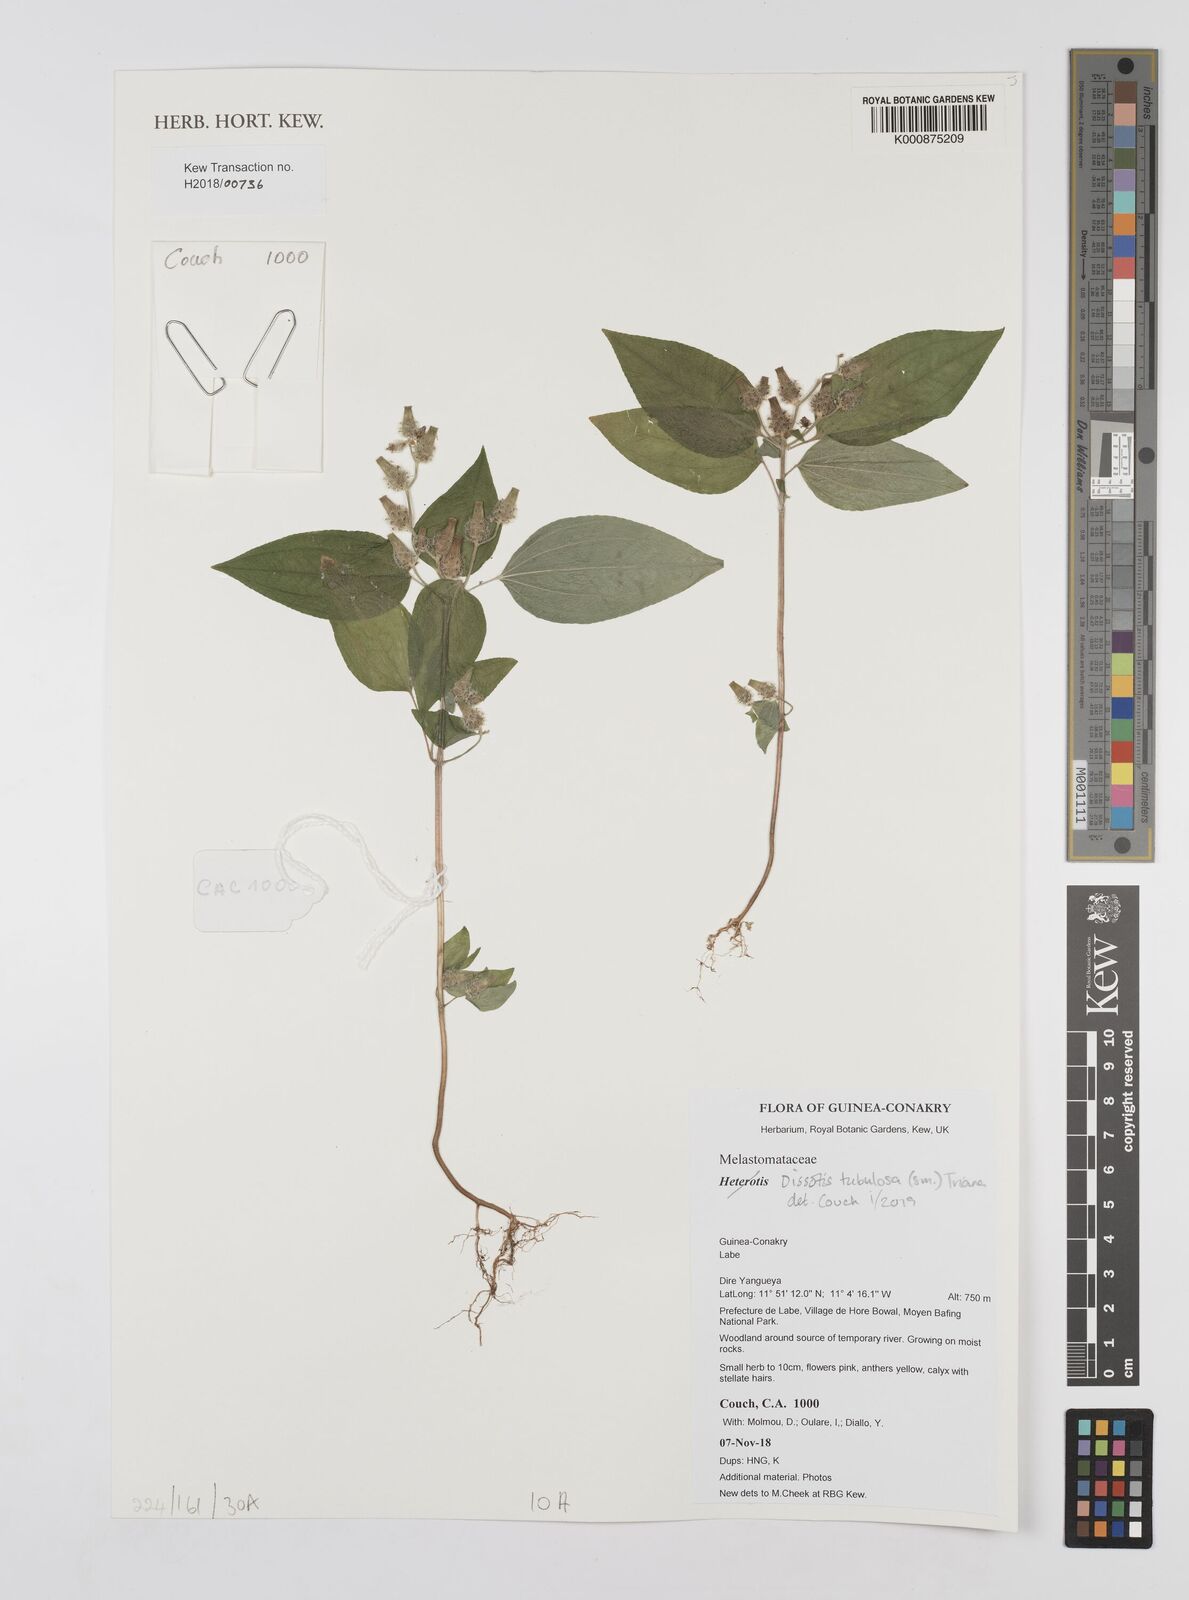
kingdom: Plantae
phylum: Tracheophyta
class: Magnoliopsida
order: Myrtales
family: Melastomataceae
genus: Derosiphia
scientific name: Derosiphia tubulosa
